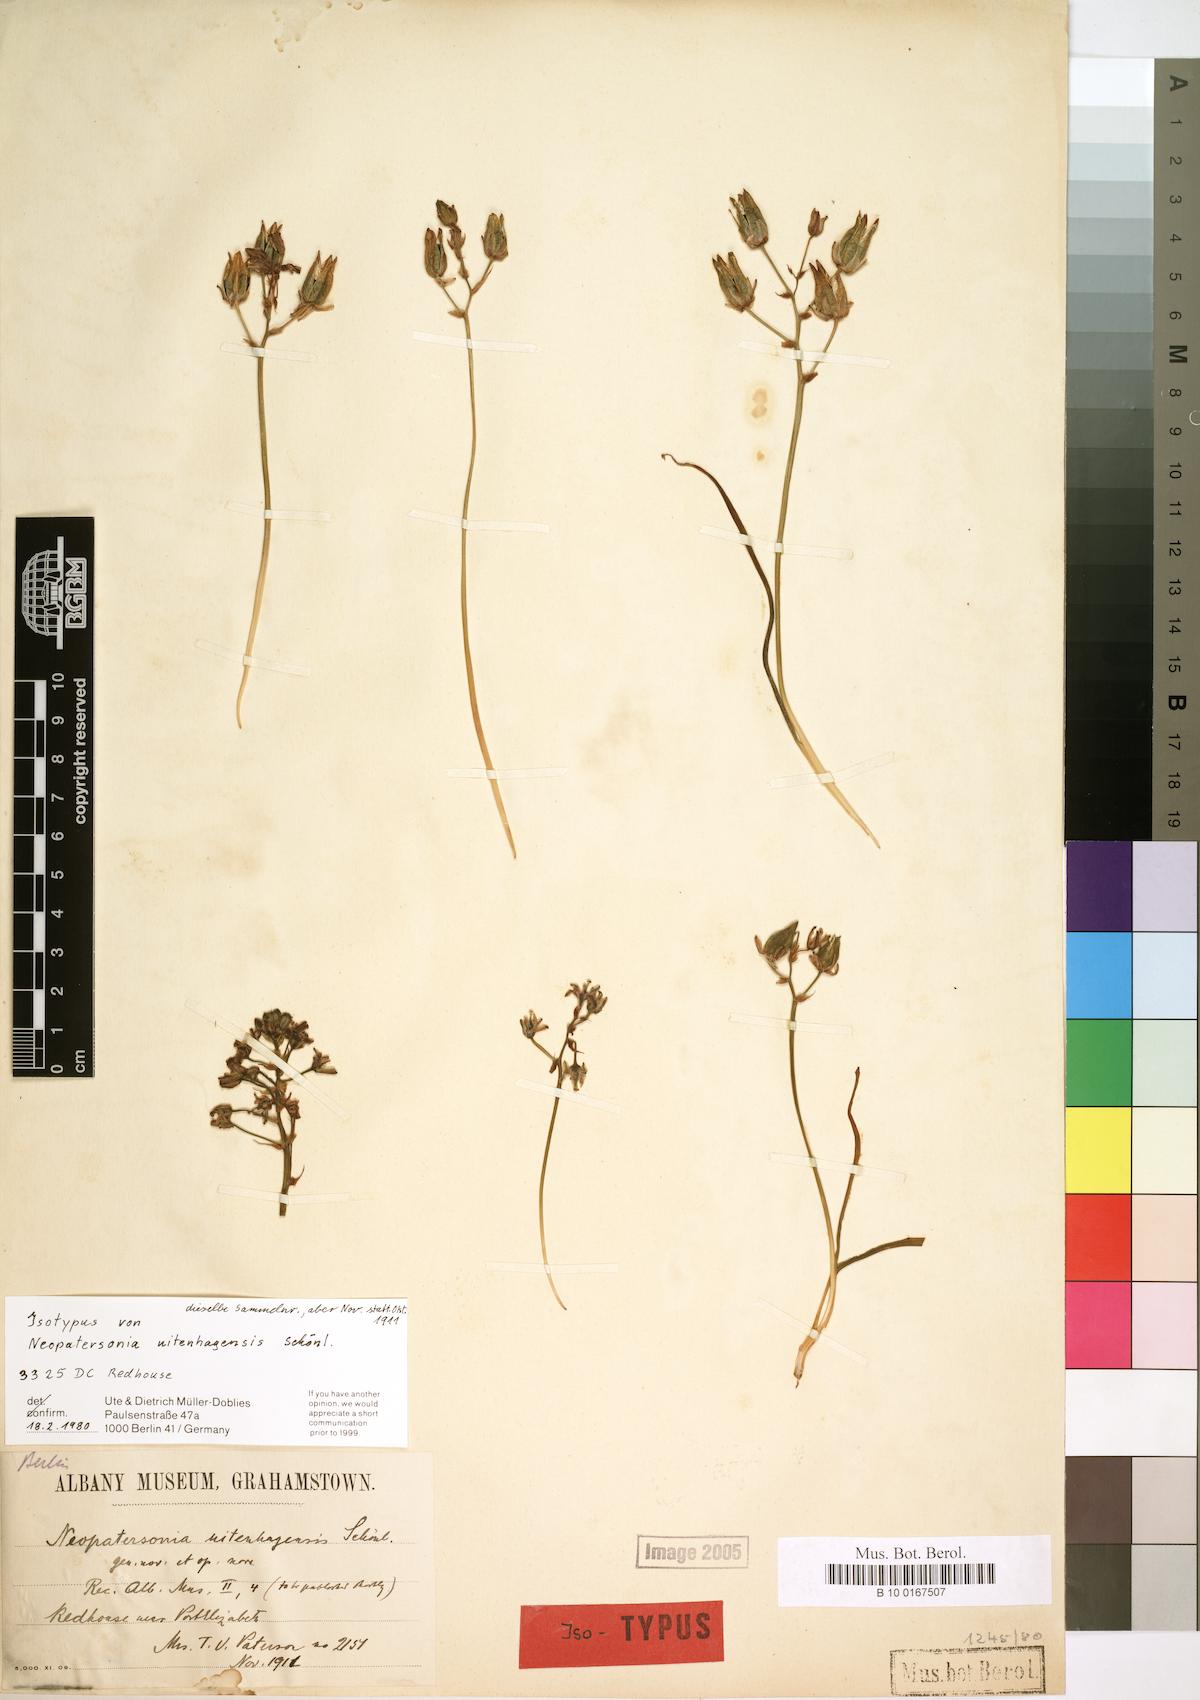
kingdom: Plantae
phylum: Tracheophyta
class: Liliopsida
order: Asparagales
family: Asparagaceae
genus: Ornithogalum
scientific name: Ornithogalum neopatersonia
